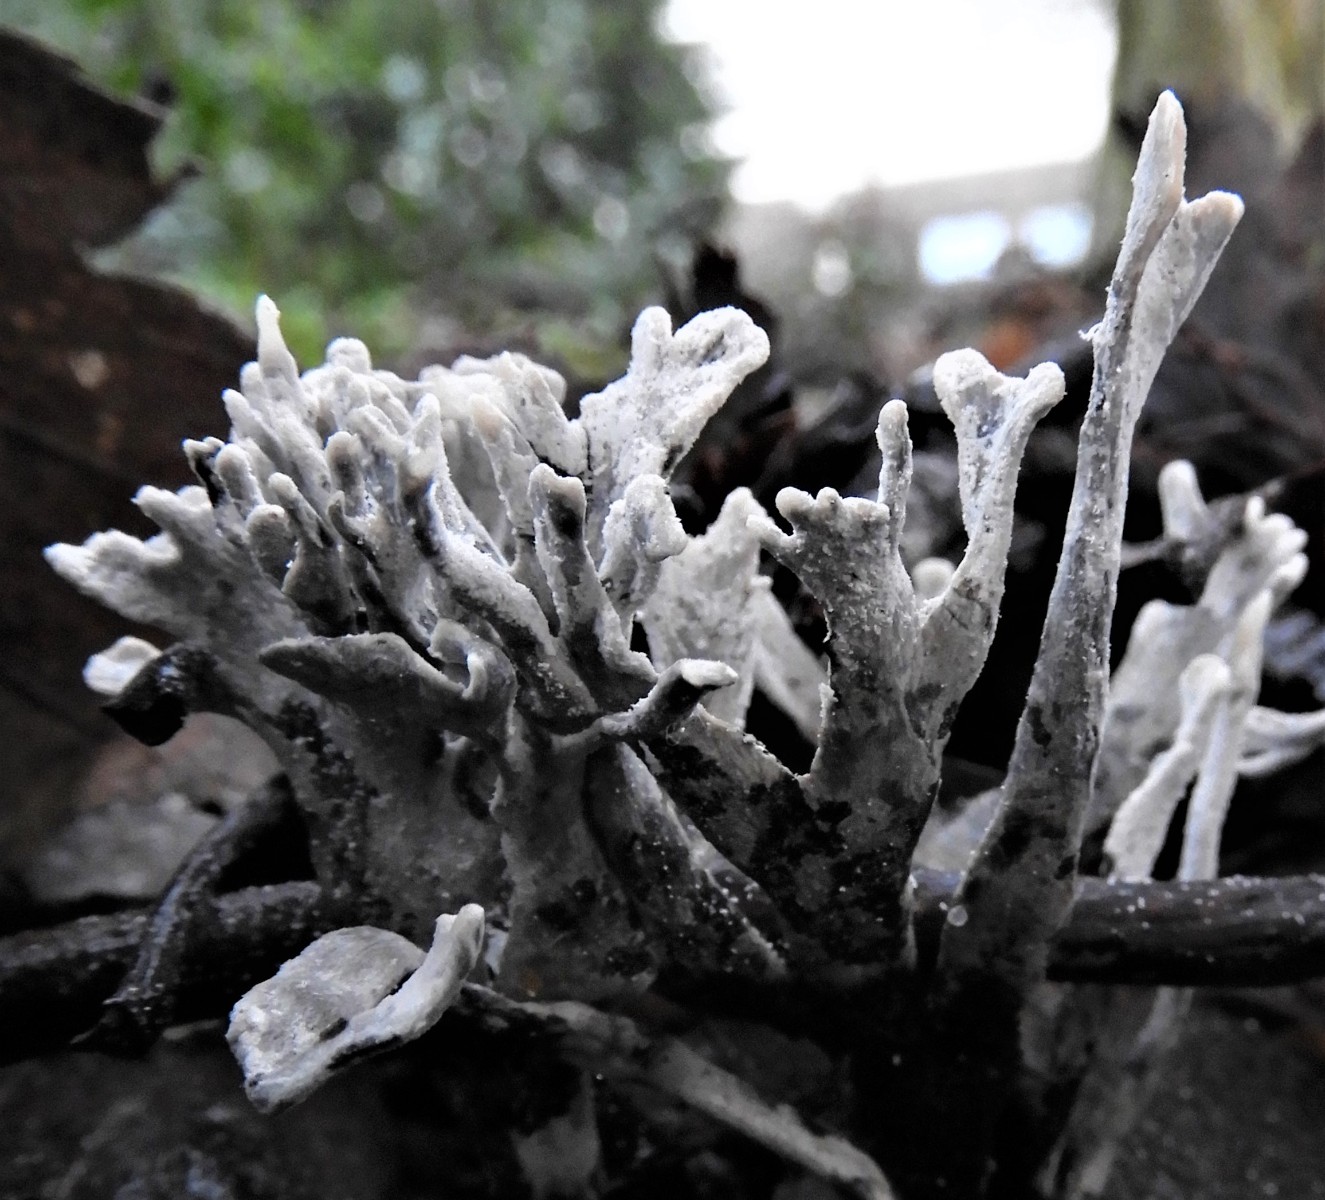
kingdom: Fungi
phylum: Ascomycota
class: Sordariomycetes
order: Xylariales
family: Xylariaceae
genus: Xylaria
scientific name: Xylaria hypoxylon
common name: grenet stødsvamp
